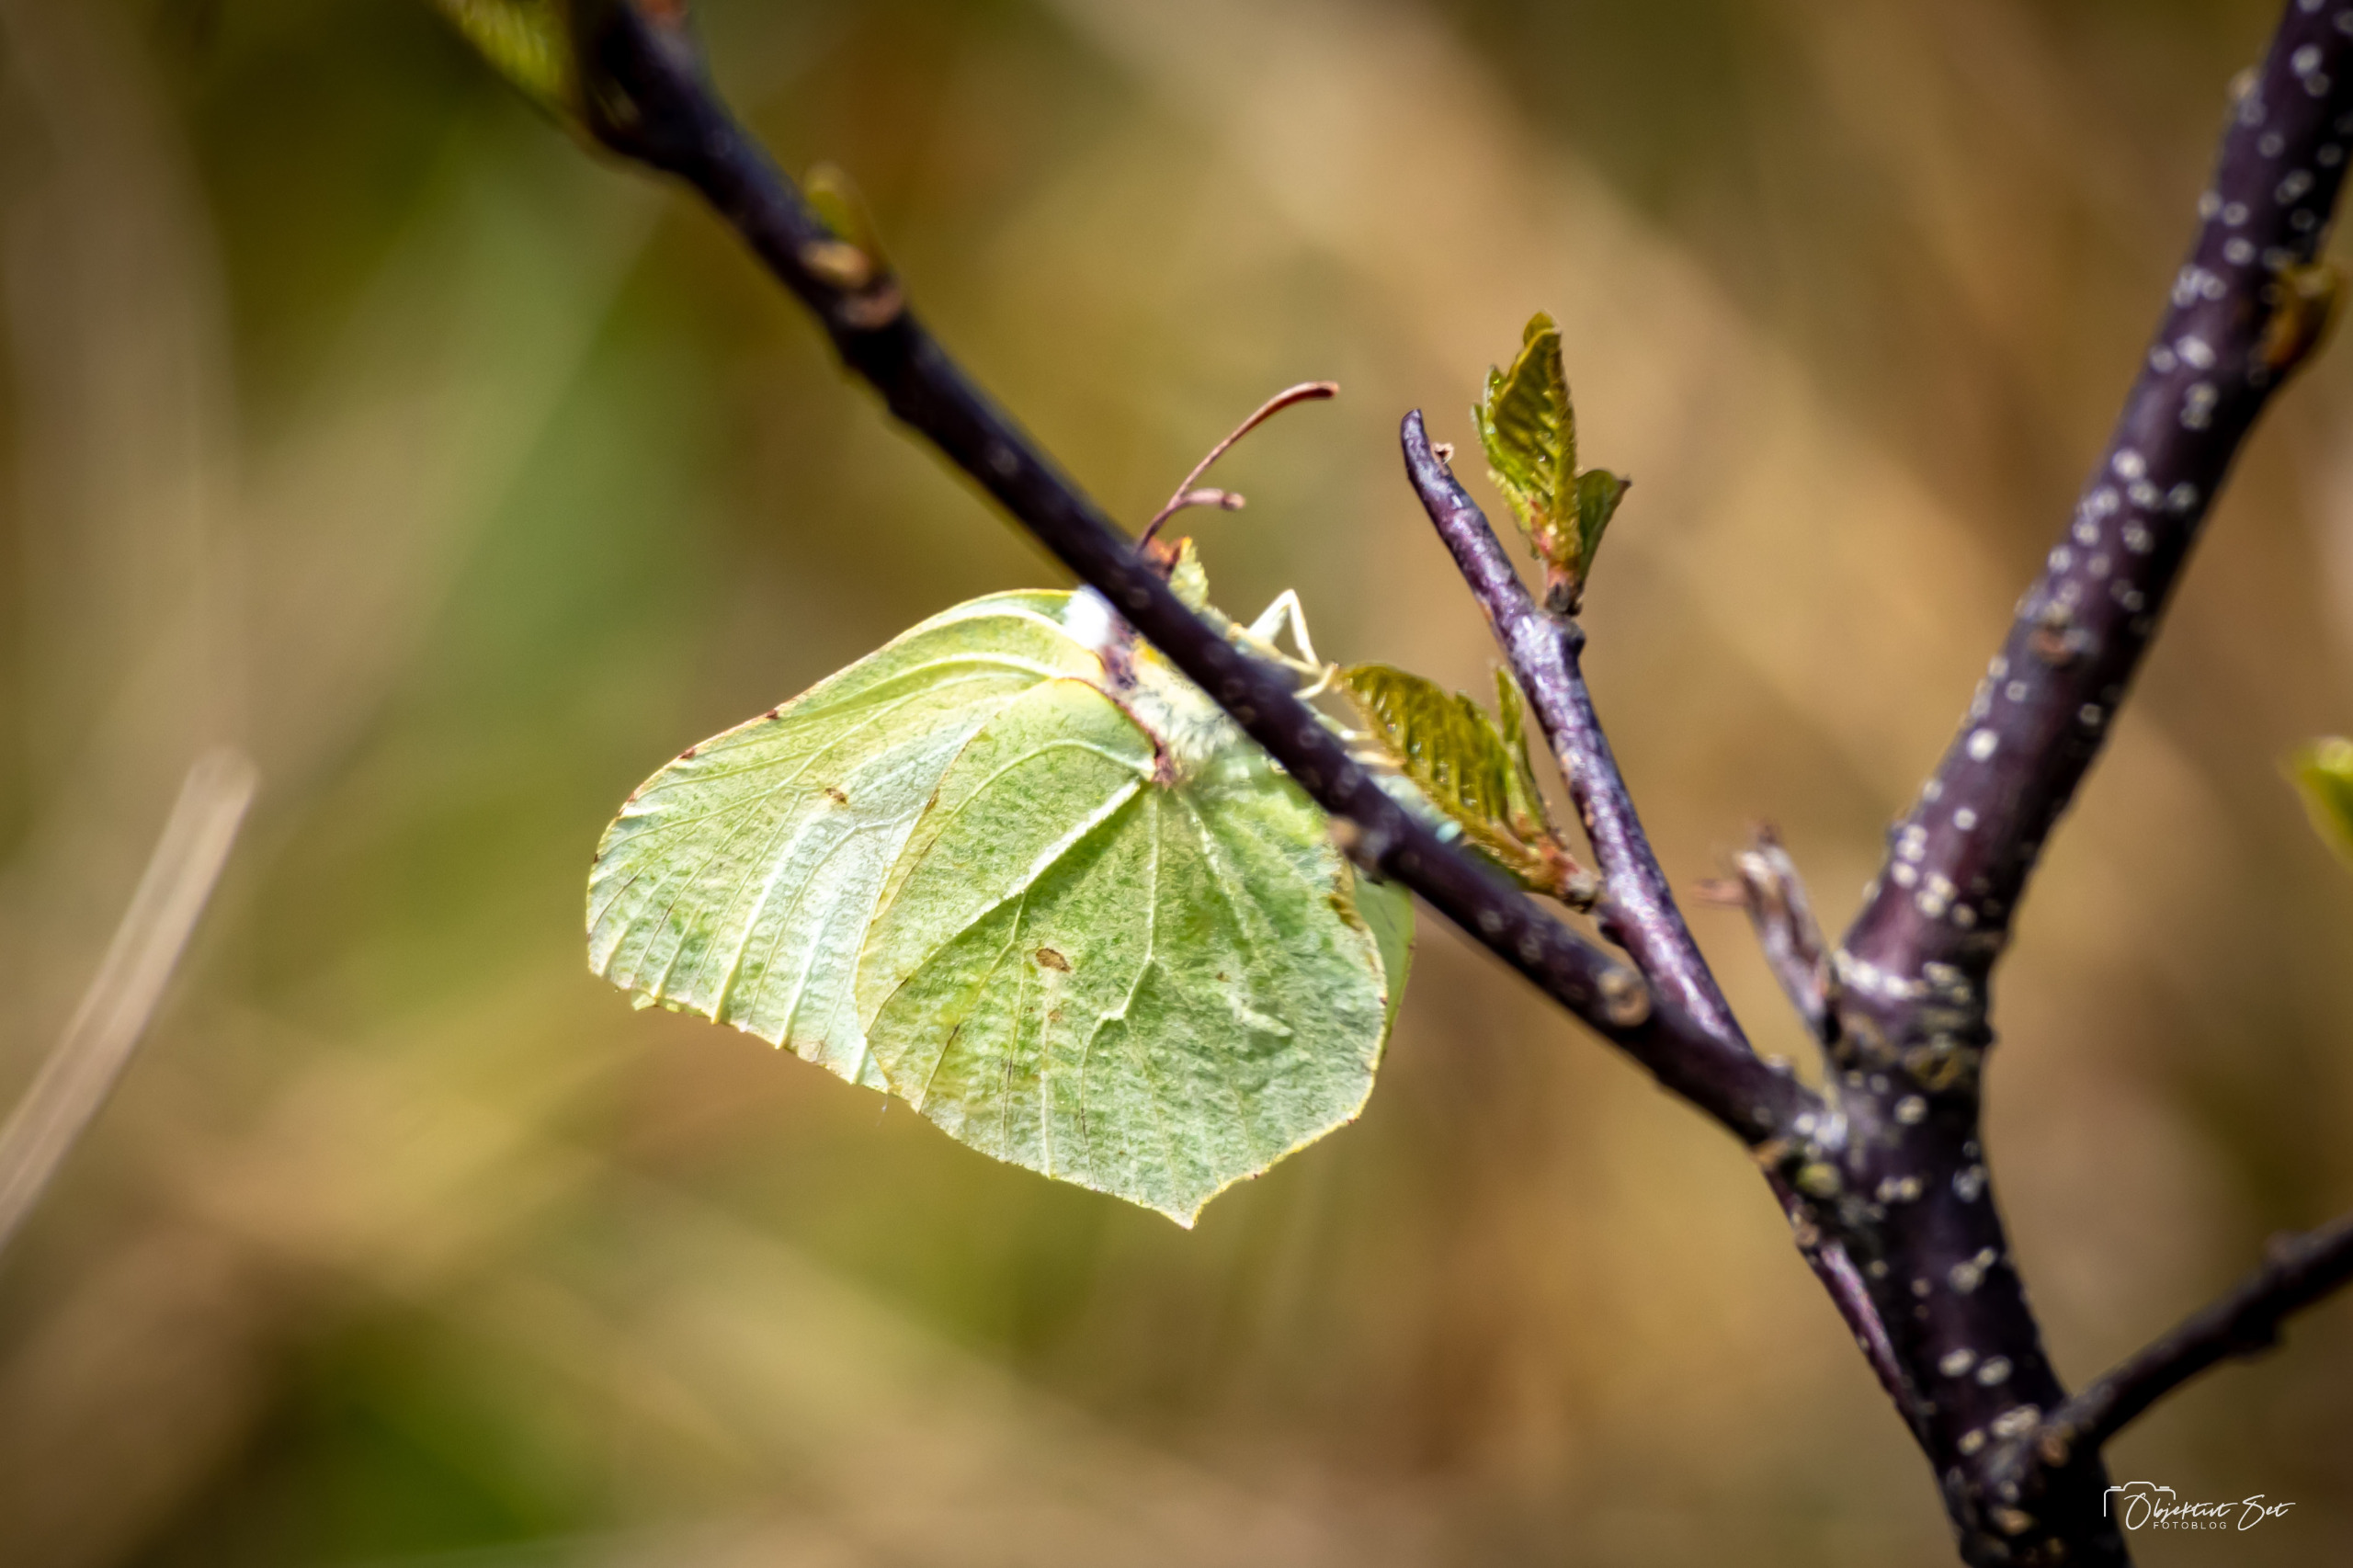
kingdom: Animalia
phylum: Arthropoda
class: Insecta
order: Lepidoptera
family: Pieridae
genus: Gonepteryx
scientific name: Gonepteryx rhamni
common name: Citronsommerfugl
